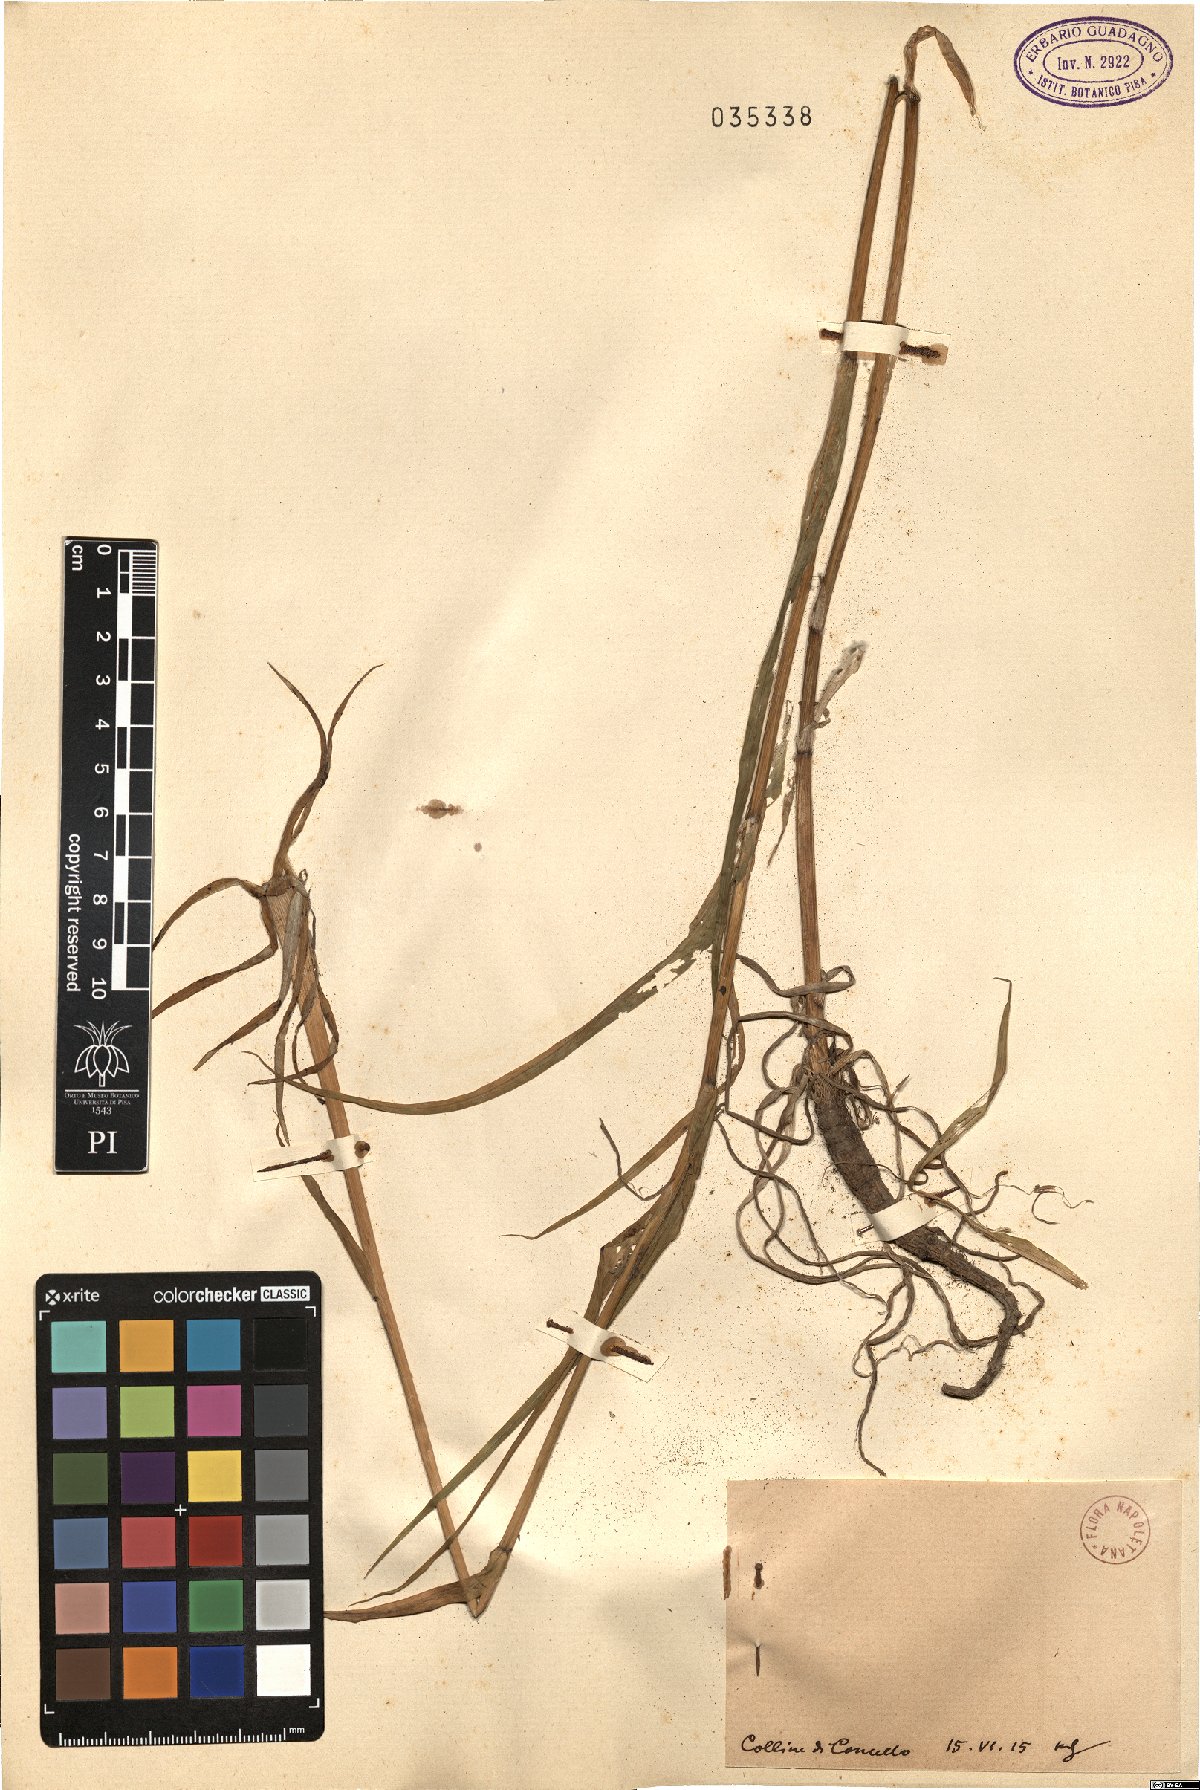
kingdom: Plantae
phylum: Tracheophyta
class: Magnoliopsida
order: Asterales
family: Asteraceae
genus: Geropogon
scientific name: Geropogon
